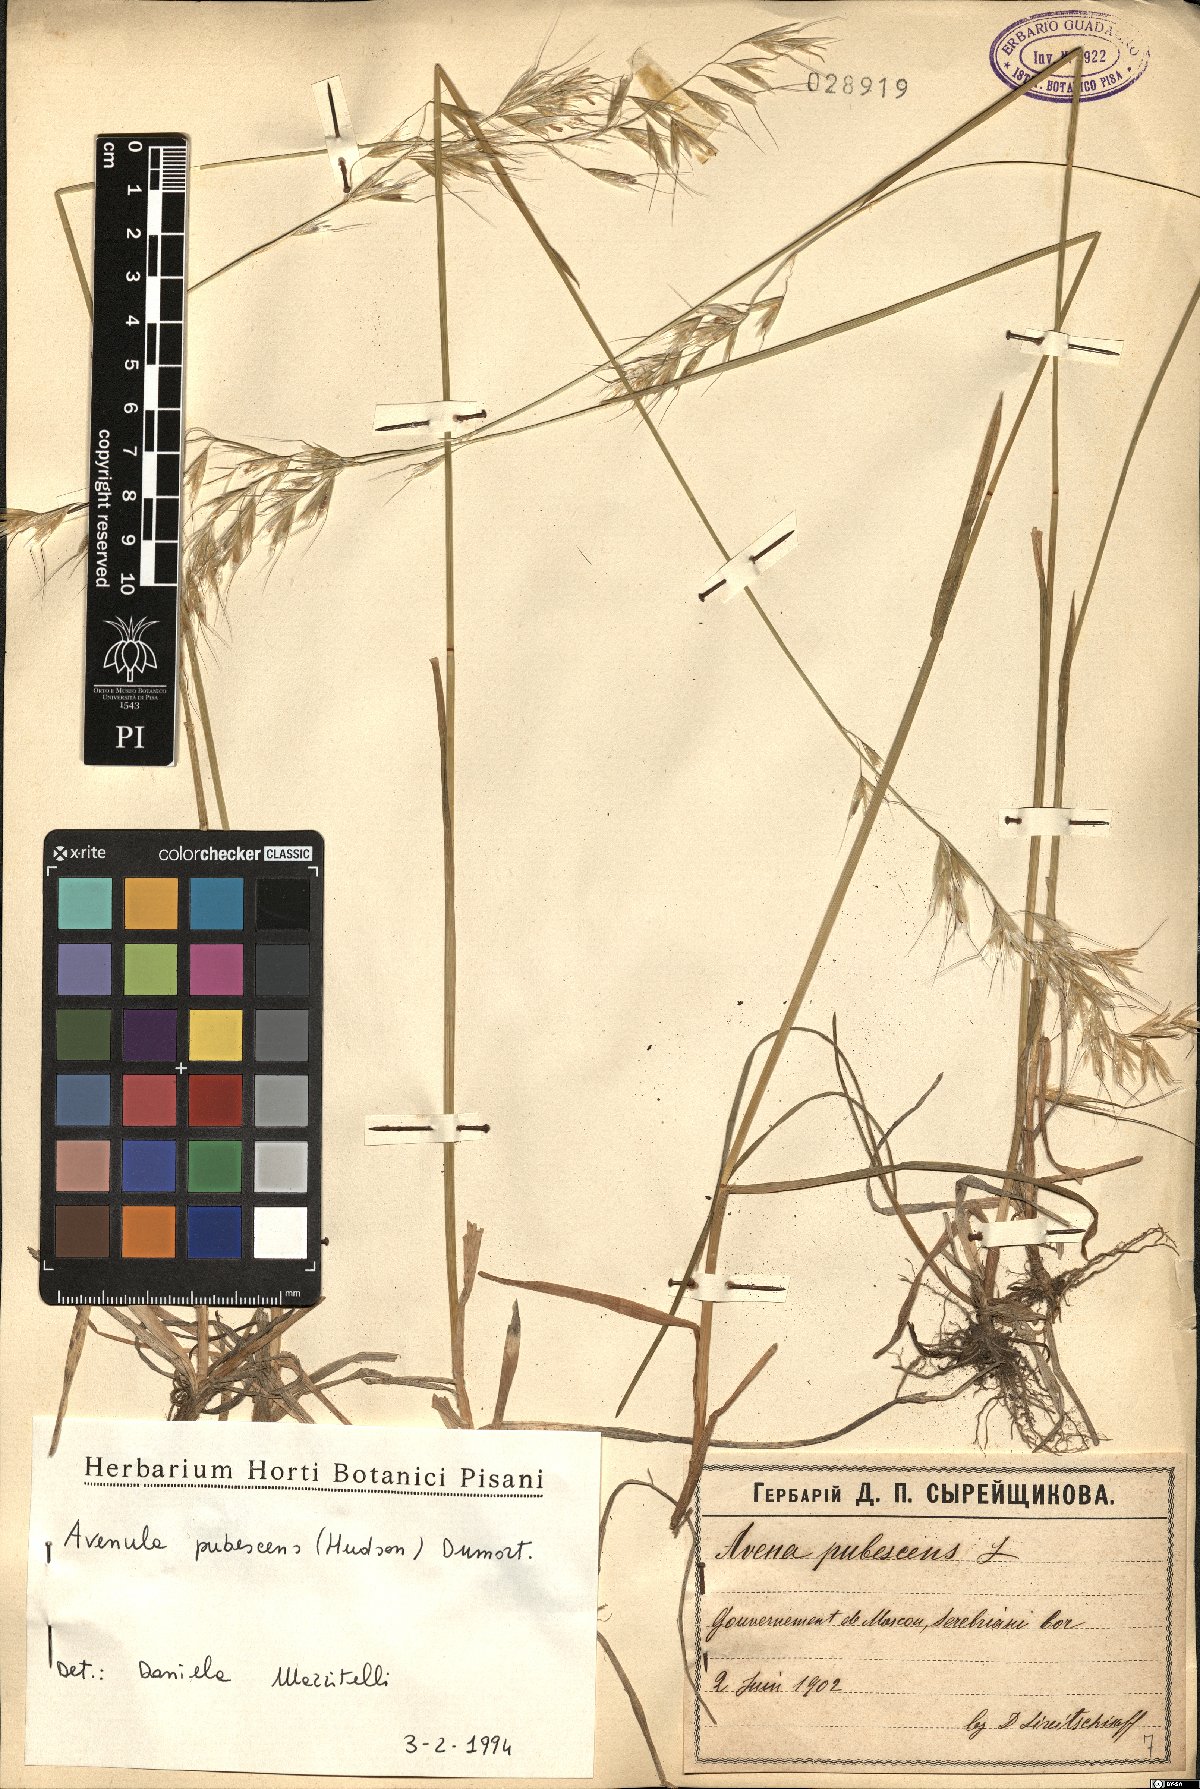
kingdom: Plantae
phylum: Tracheophyta
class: Liliopsida
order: Poales
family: Poaceae
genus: Avenula
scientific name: Avenula pubescens
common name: Downy alpine oatgrass
